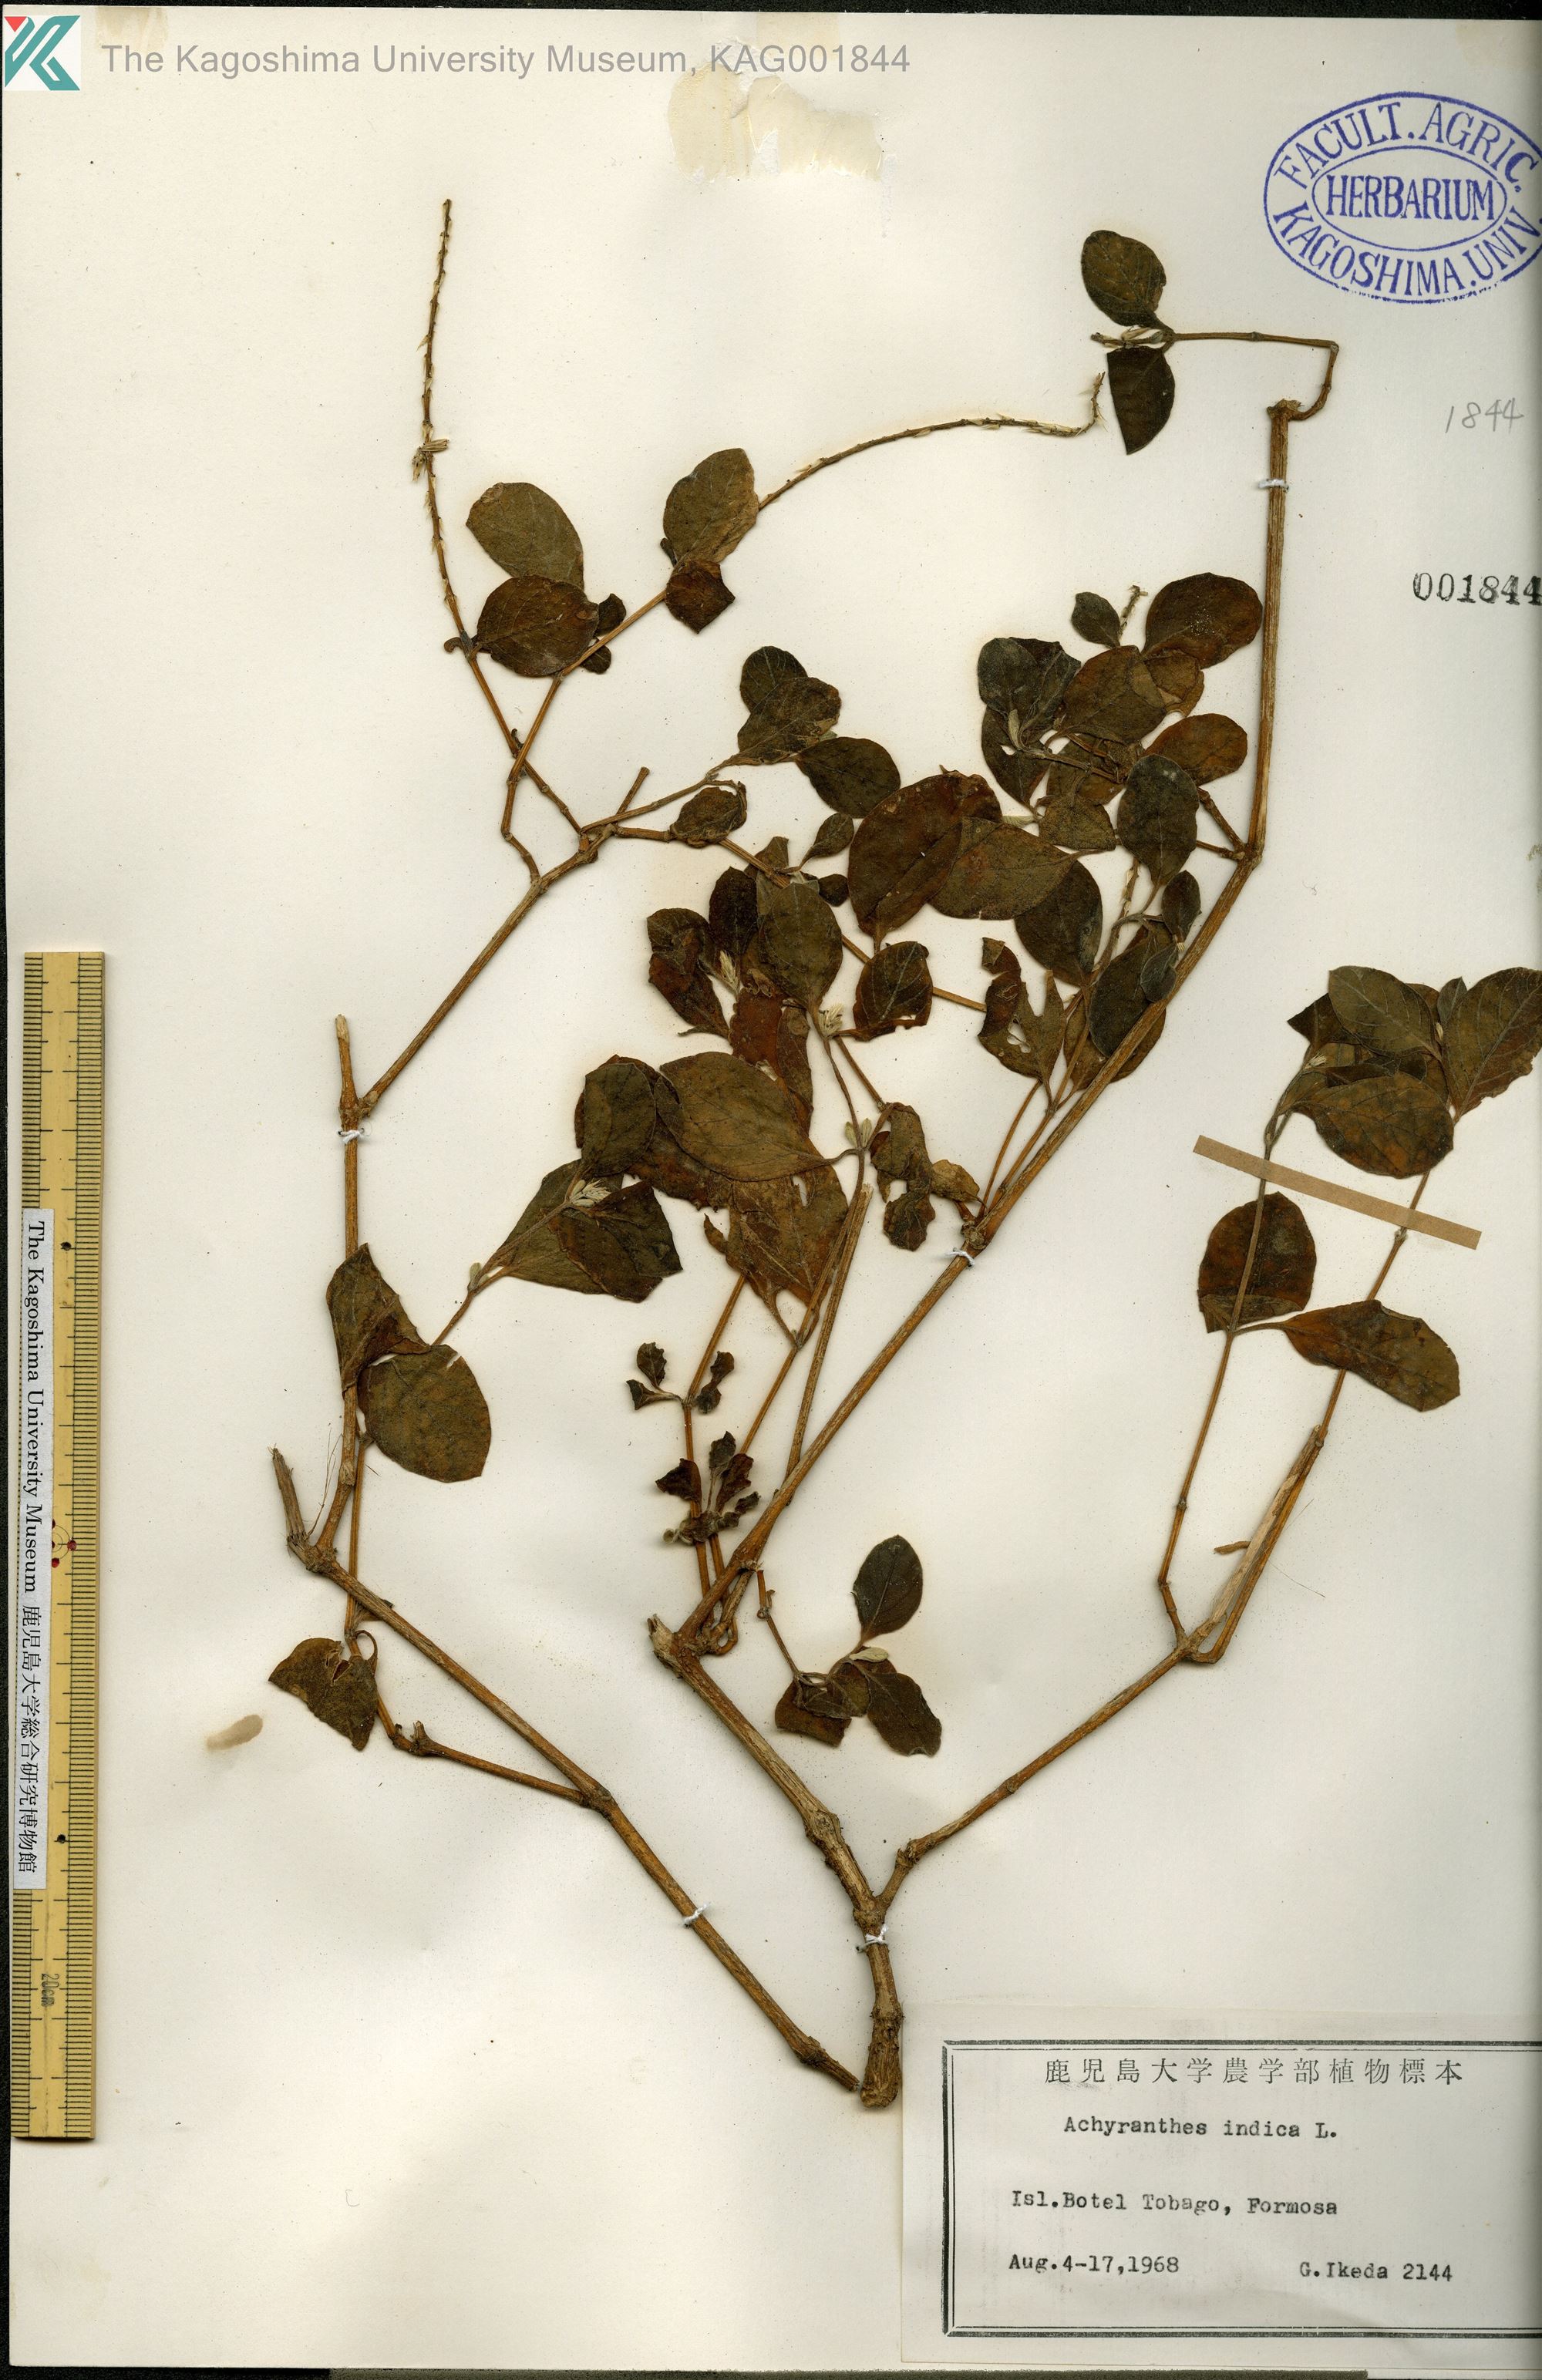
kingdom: Plantae
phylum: Tracheophyta
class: Magnoliopsida
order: Caryophyllales
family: Amaranthaceae
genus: Achyranthes
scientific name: Achyranthes aspera
